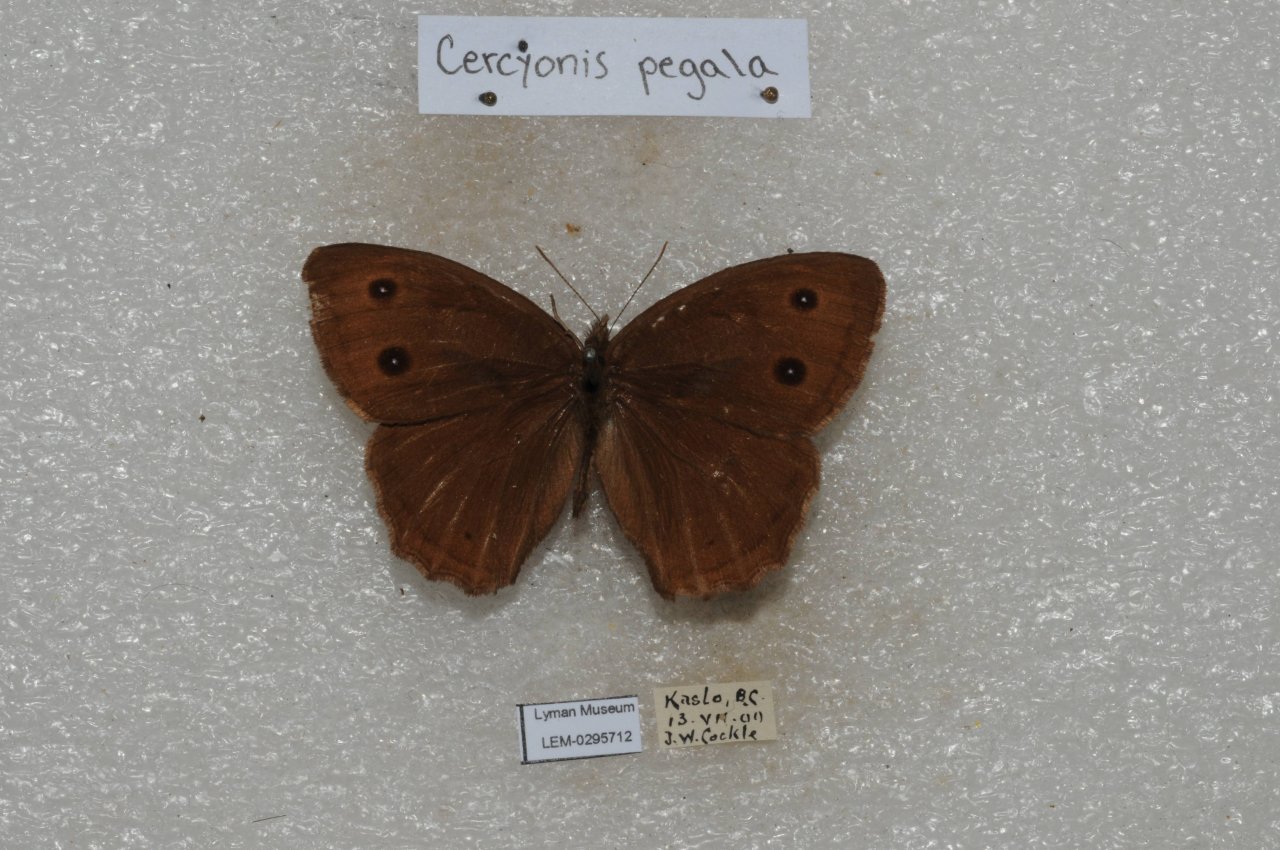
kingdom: Animalia
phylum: Arthropoda
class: Insecta
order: Lepidoptera
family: Nymphalidae
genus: Cercyonis
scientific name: Cercyonis pegala
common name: Common Wood-Nymph
